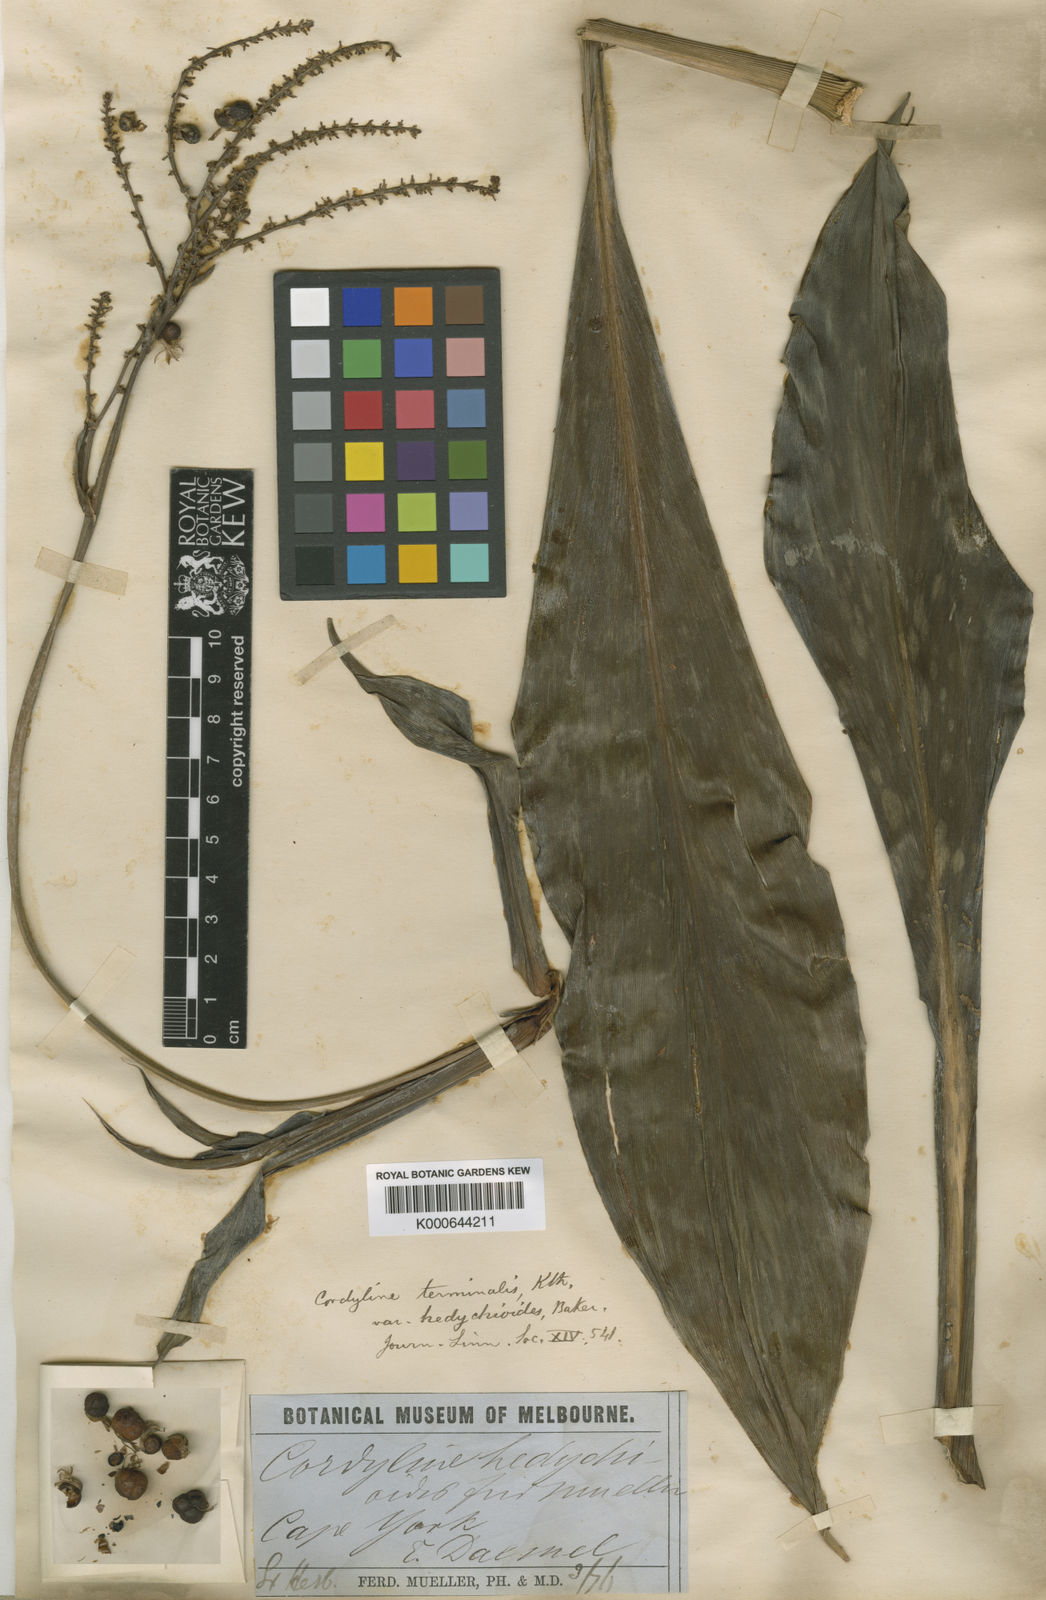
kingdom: Plantae
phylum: Tracheophyta
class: Liliopsida
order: Asparagales
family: Asparagaceae
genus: Cordyline
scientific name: Cordyline fruticosa
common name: Good-luck-plant
